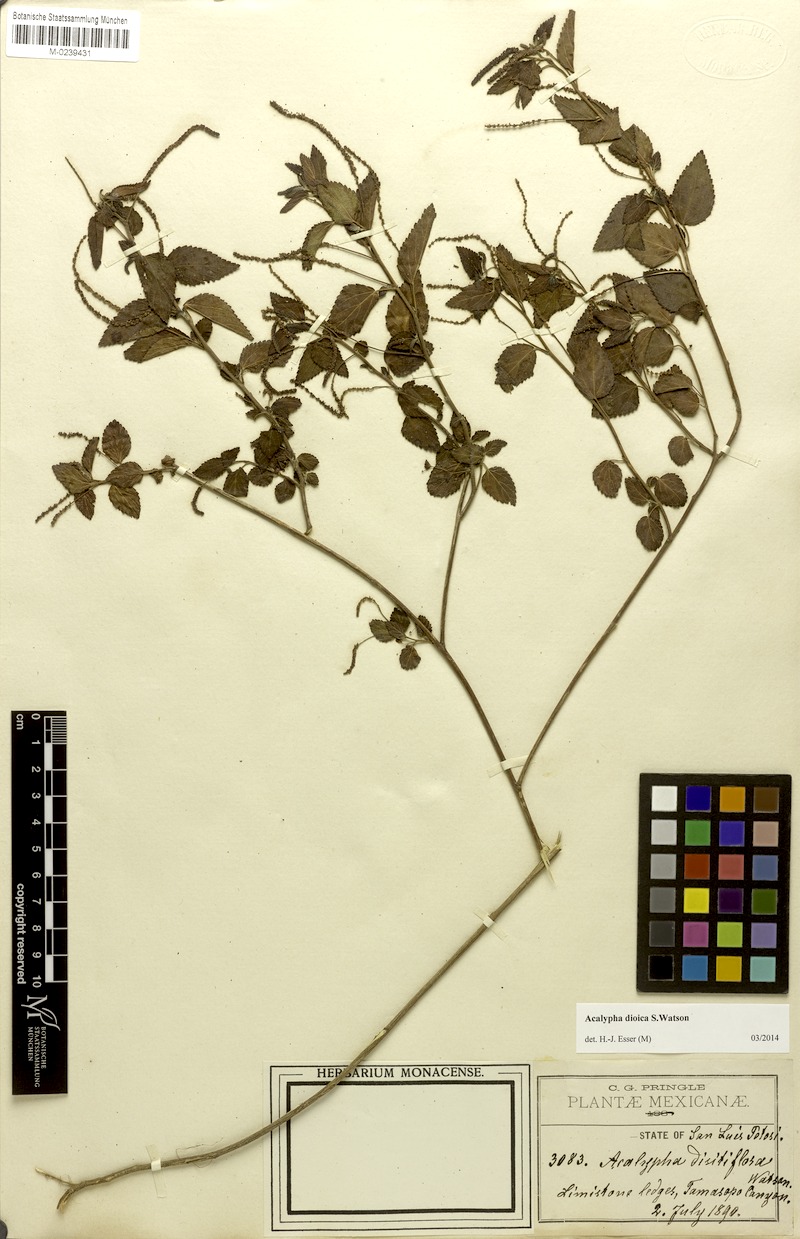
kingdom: Plantae
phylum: Tracheophyta
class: Magnoliopsida
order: Malpighiales
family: Euphorbiaceae
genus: Acalypha
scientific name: Acalypha dioica
